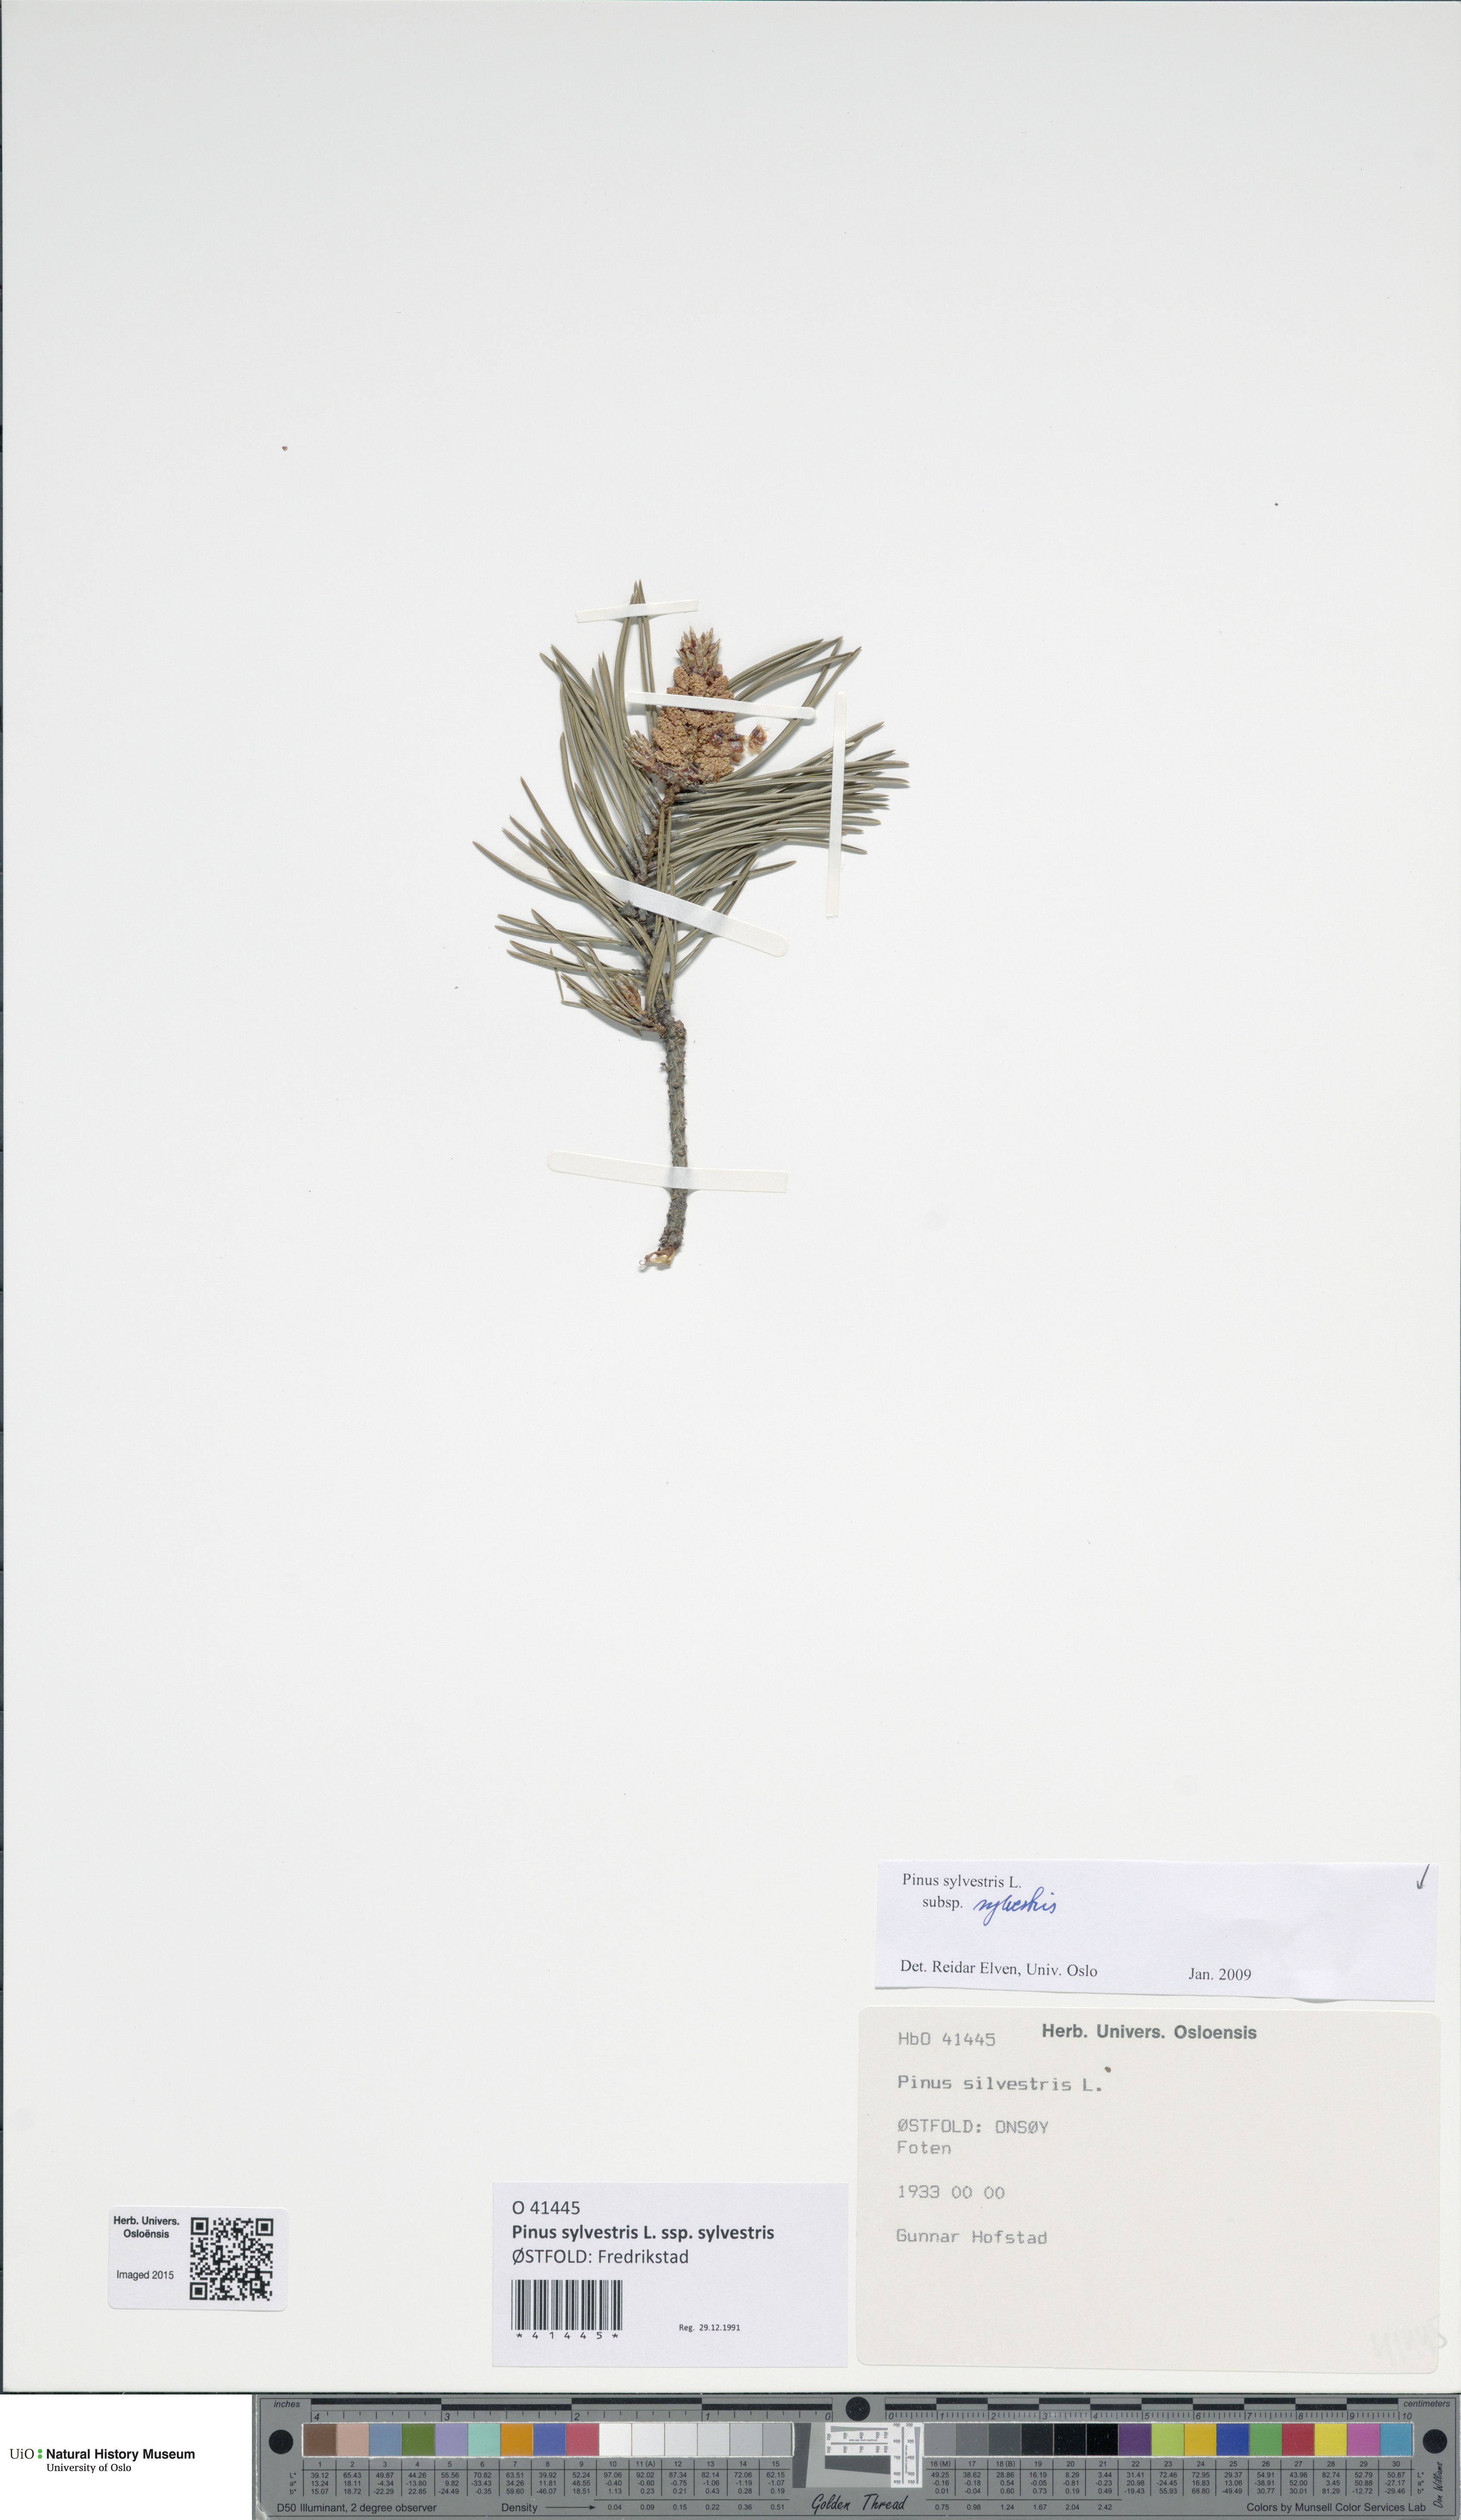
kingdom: Plantae
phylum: Tracheophyta
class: Pinopsida
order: Pinales
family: Pinaceae
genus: Pinus
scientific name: Pinus sylvestris
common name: Scots pine
